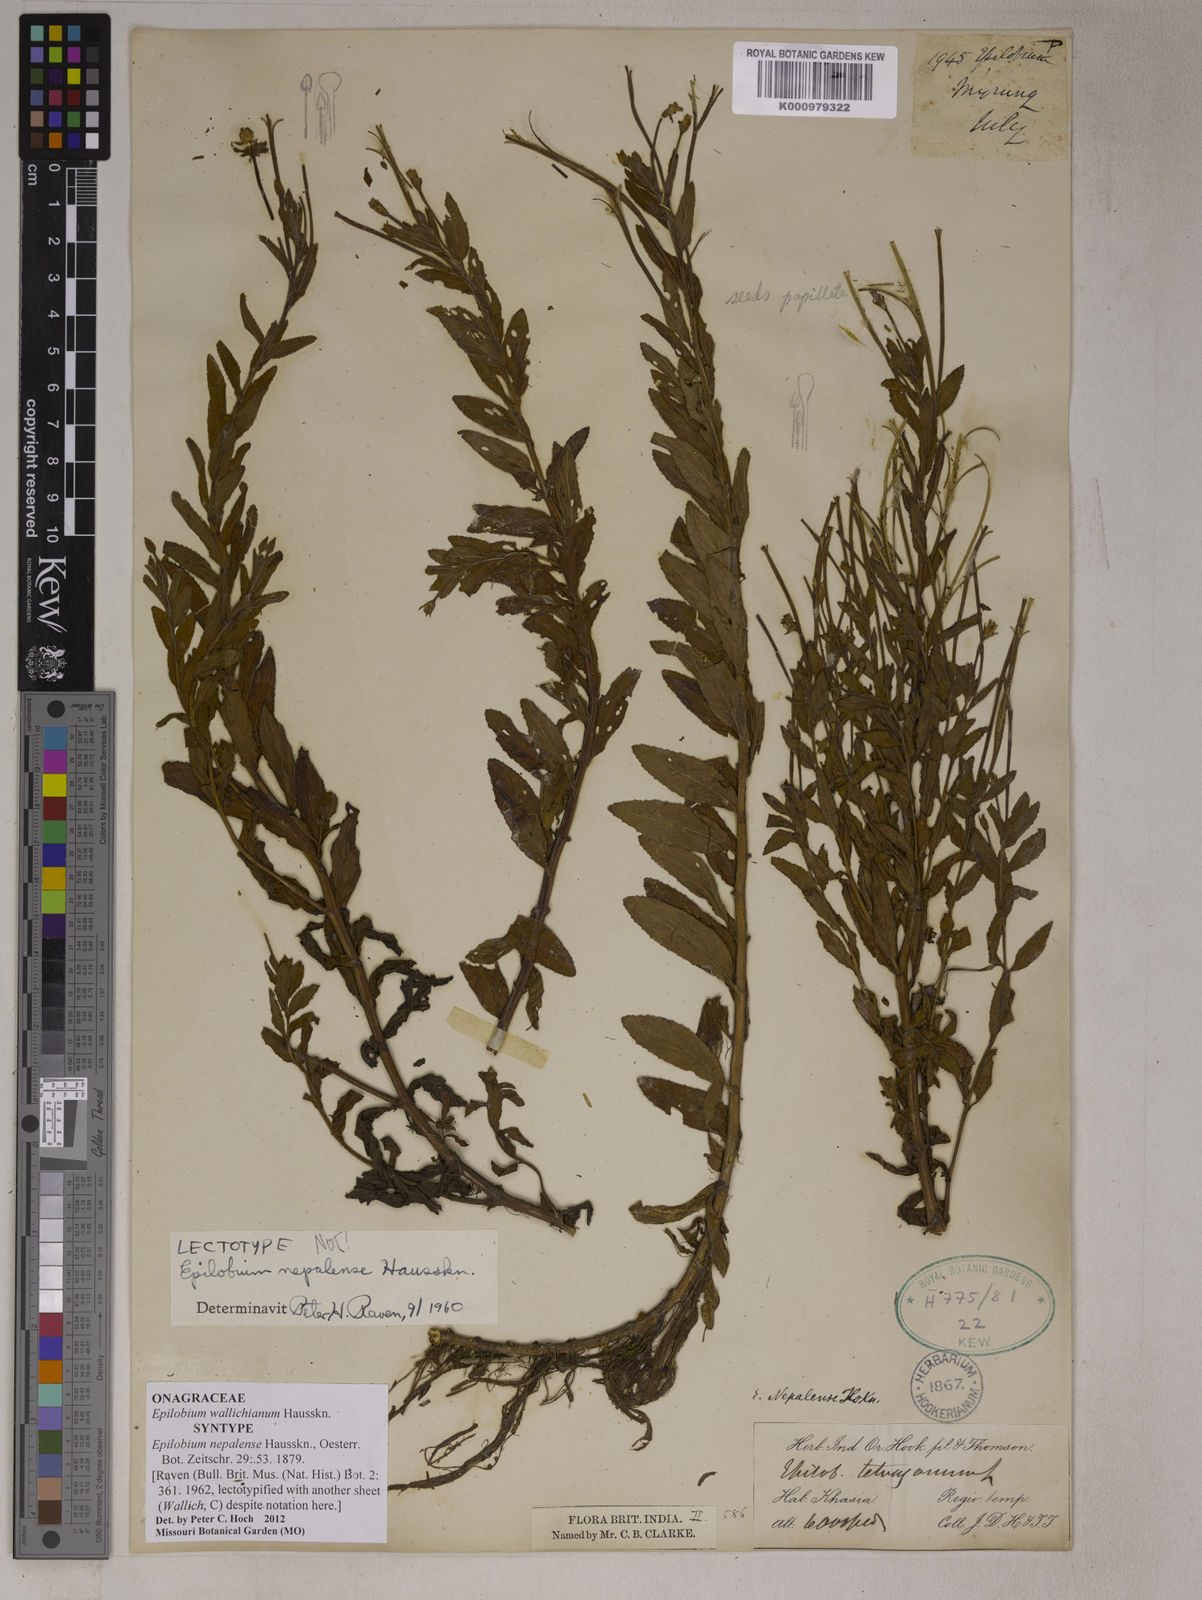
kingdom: Plantae
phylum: Tracheophyta
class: Magnoliopsida
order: Myrtales
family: Onagraceae
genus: Epilobium
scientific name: Epilobium
